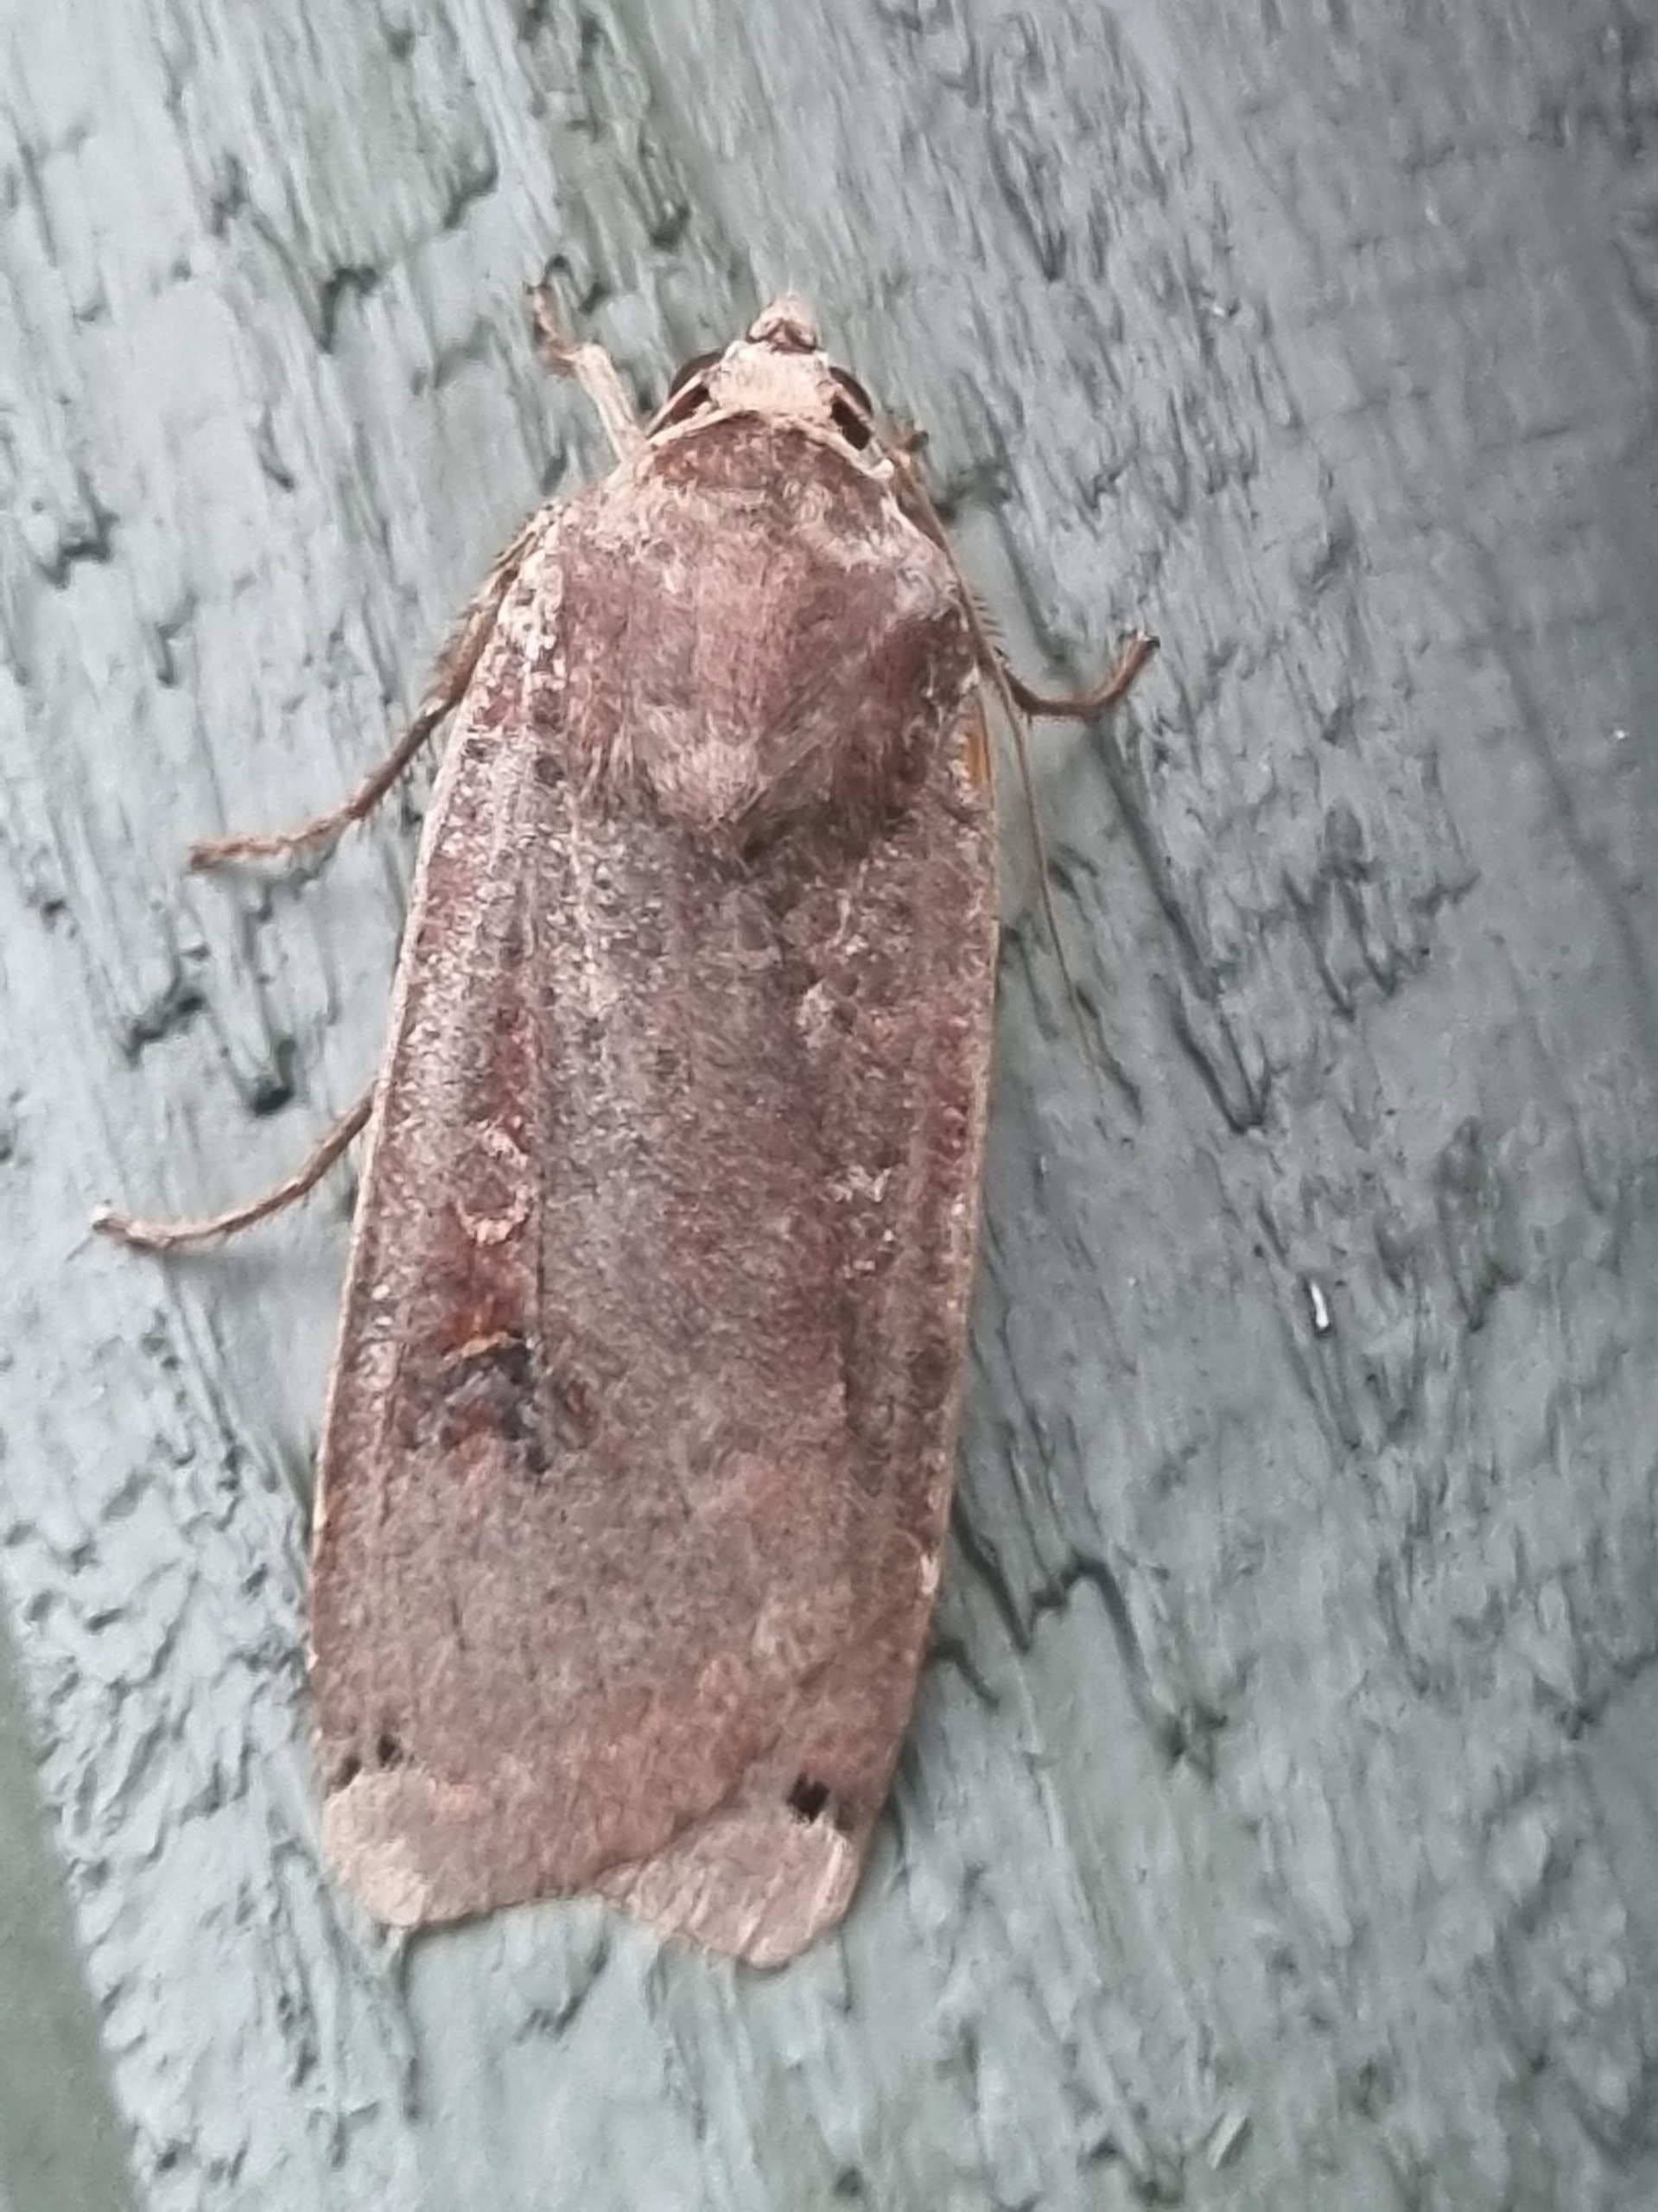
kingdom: Animalia
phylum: Arthropoda
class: Insecta
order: Lepidoptera
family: Noctuidae
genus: Noctua
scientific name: Noctua pronuba
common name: Stor smutugle
